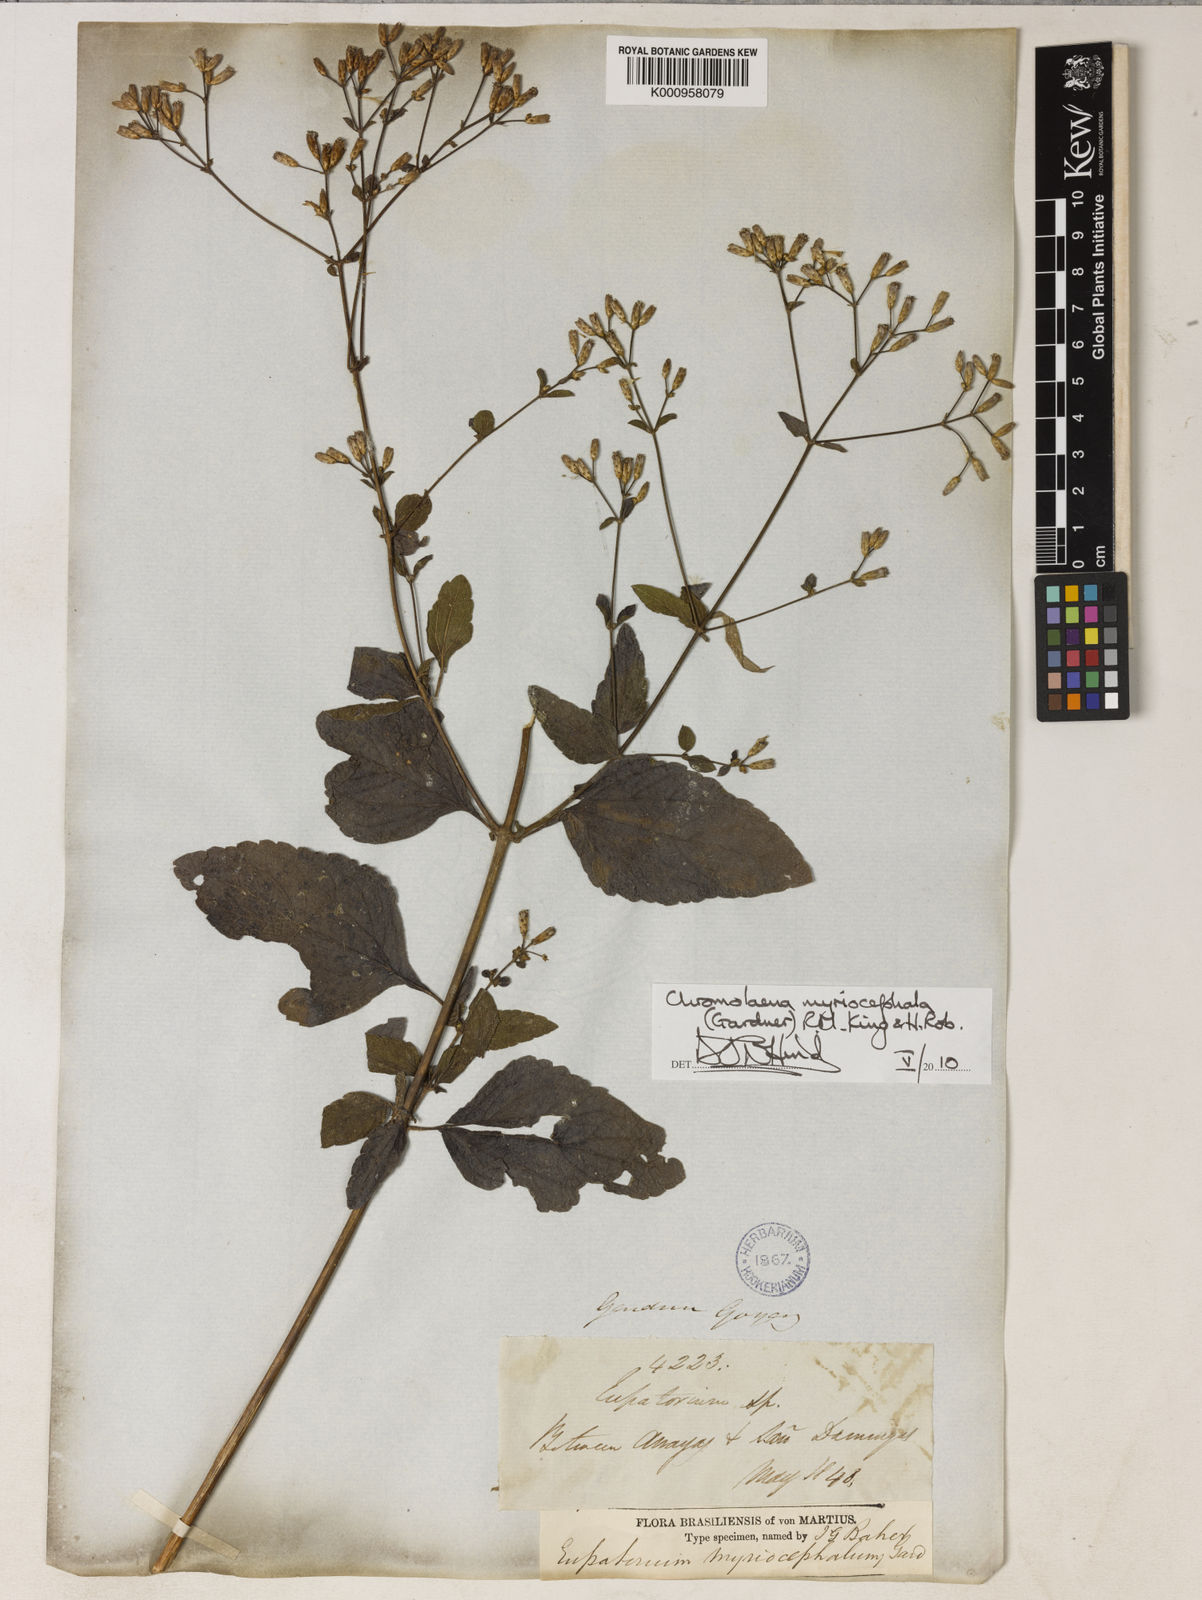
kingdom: Plantae
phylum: Tracheophyta
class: Magnoliopsida
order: Asterales
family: Asteraceae
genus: Chromolaena
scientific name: Chromolaena myriocephala
